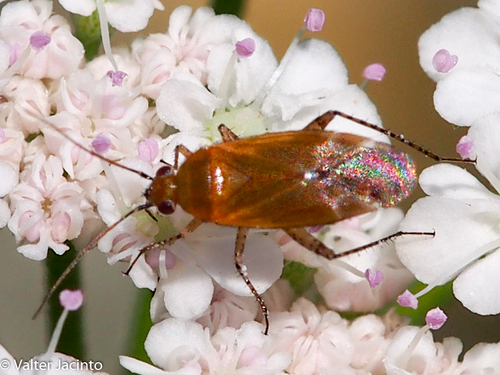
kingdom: Animalia
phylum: Arthropoda
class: Insecta
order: Hemiptera
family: Miridae
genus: Plagiognathus
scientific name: Plagiognathus fulvipennis
